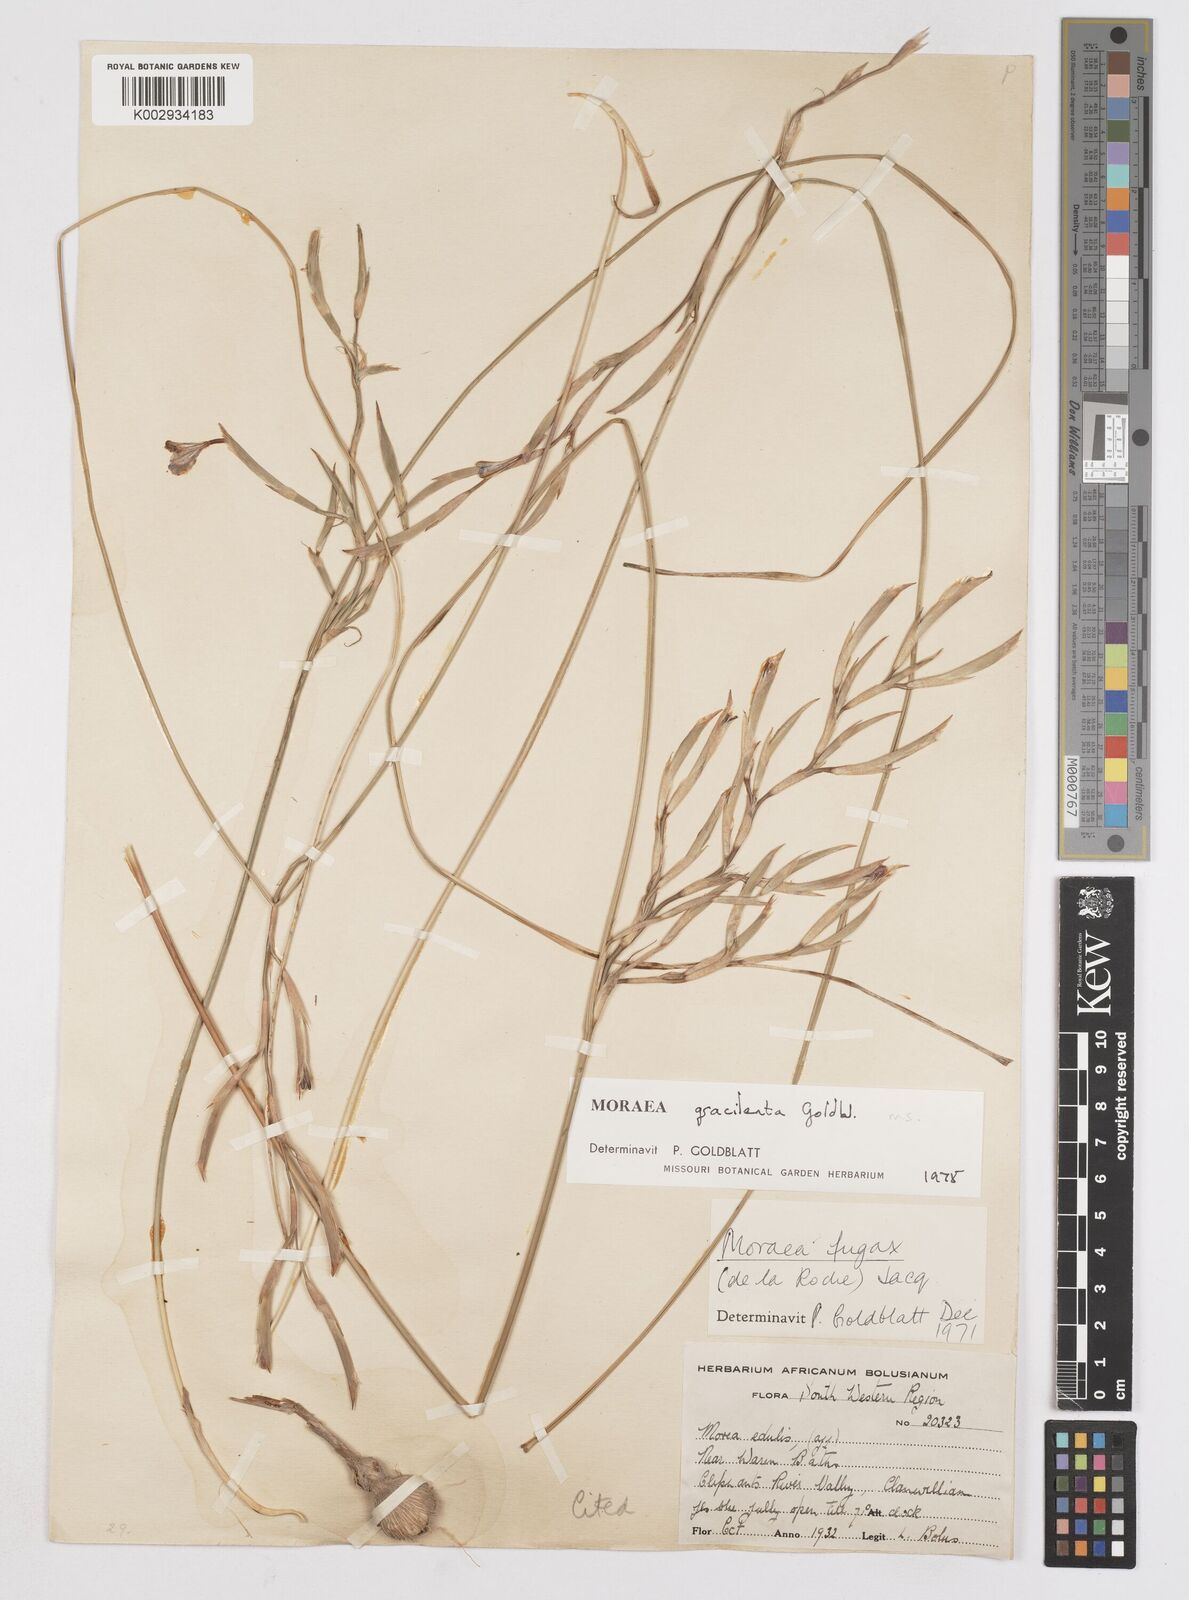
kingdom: Plantae
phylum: Tracheophyta
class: Liliopsida
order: Asparagales
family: Iridaceae
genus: Moraea
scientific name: Moraea gracilenta
